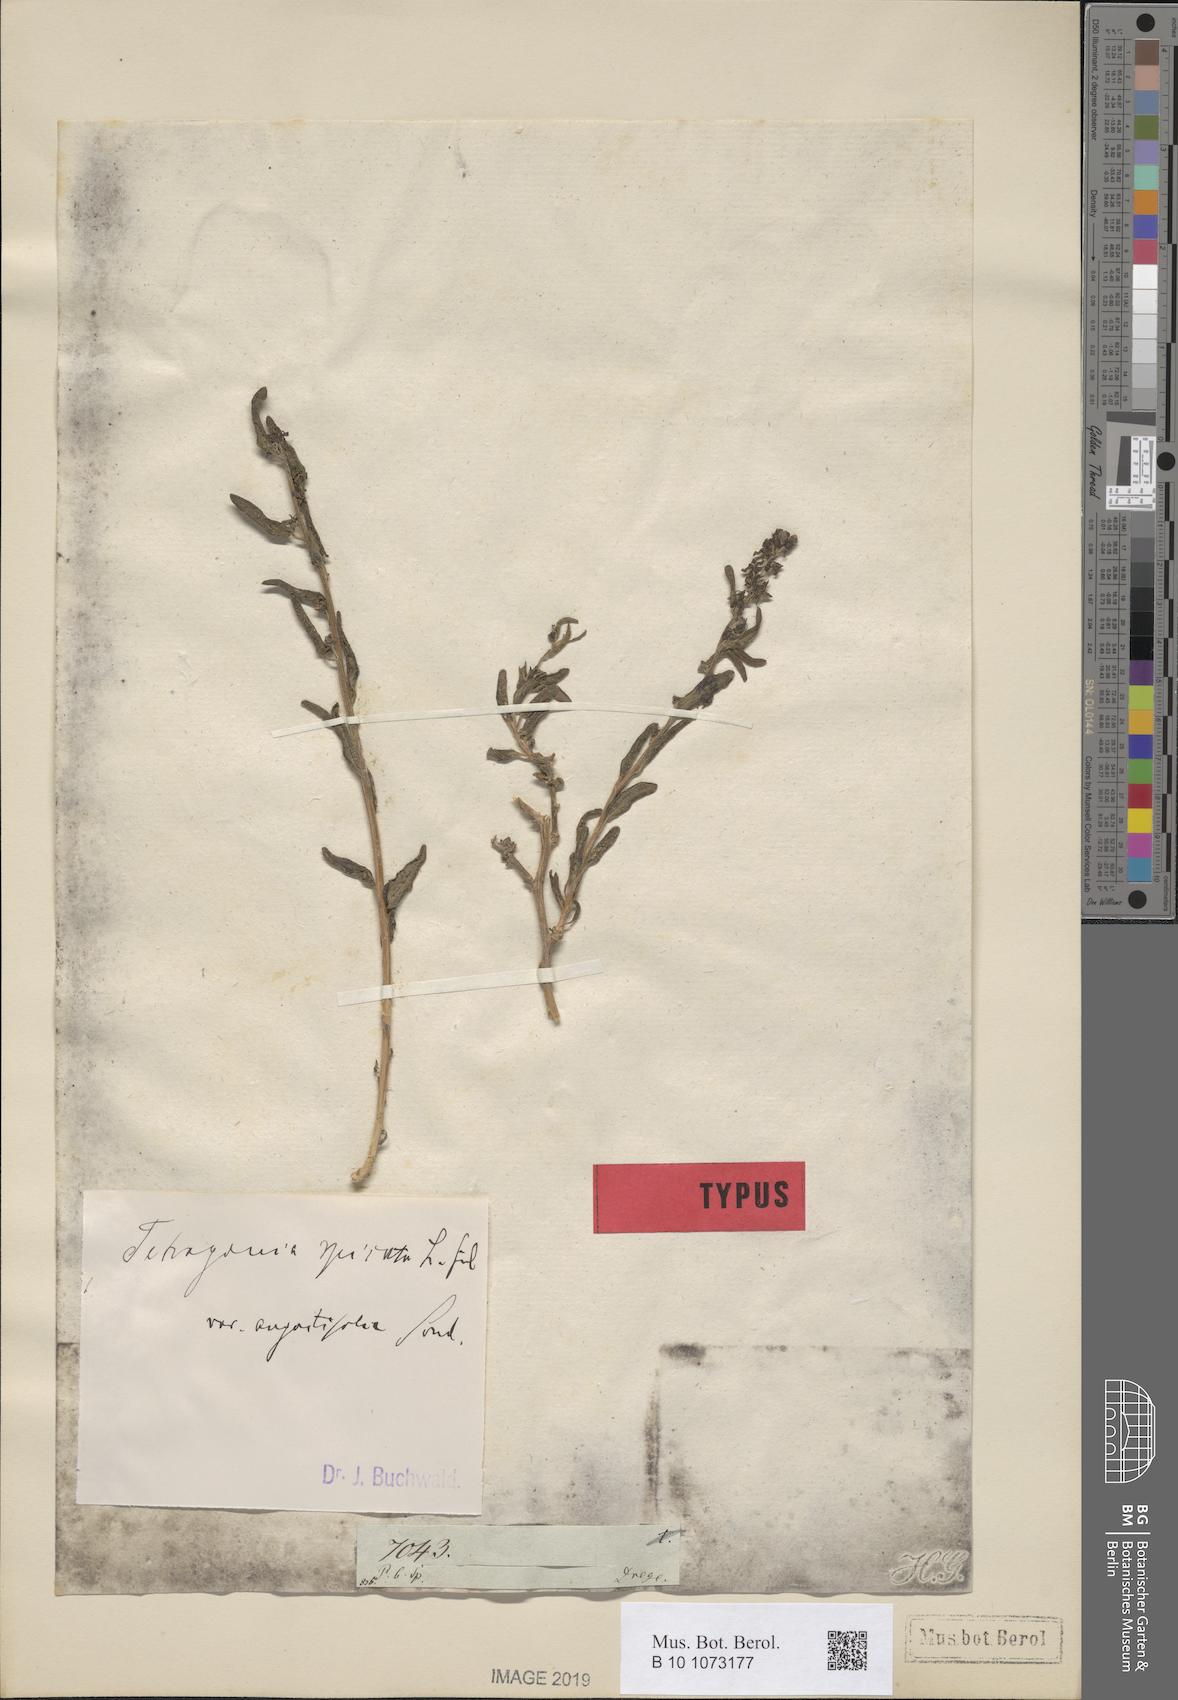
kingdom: Plantae
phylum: Tracheophyta
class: Magnoliopsida
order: Caryophyllales
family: Aizoaceae
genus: Tetragonia
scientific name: Tetragonia spicata
